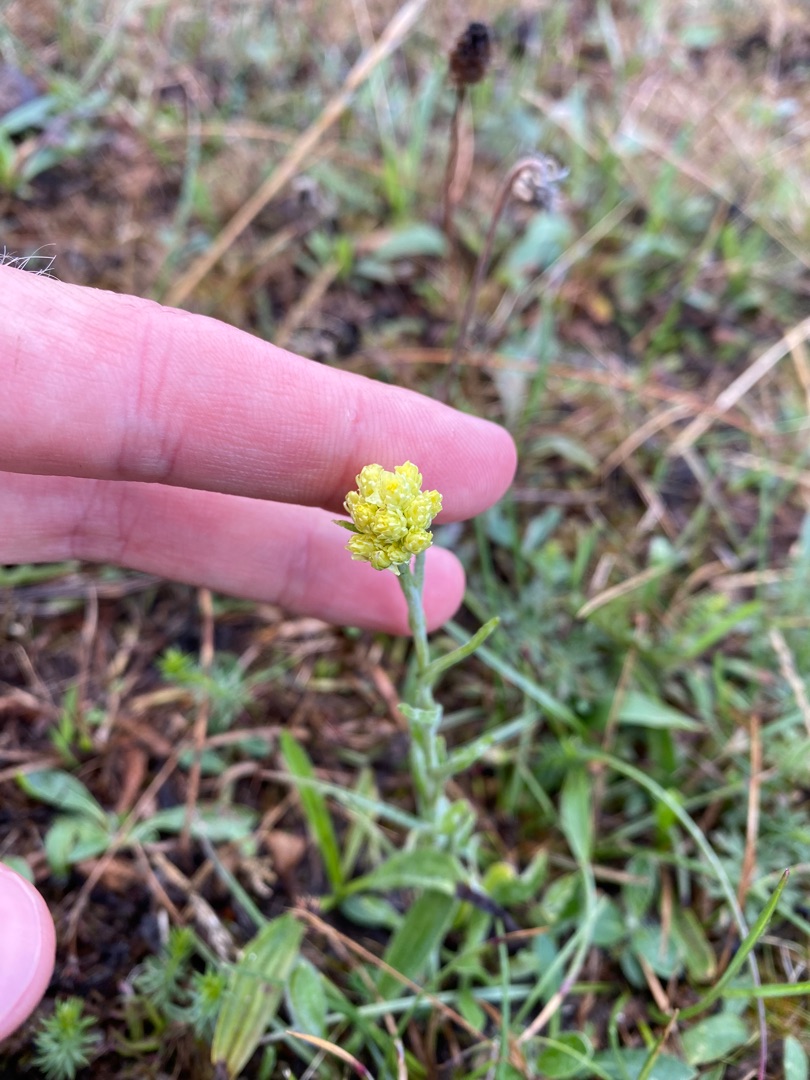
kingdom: Plantae
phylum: Tracheophyta
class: Magnoliopsida
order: Asterales
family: Asteraceae
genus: Helichrysum
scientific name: Helichrysum arenarium
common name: Gul evighedsblomst
